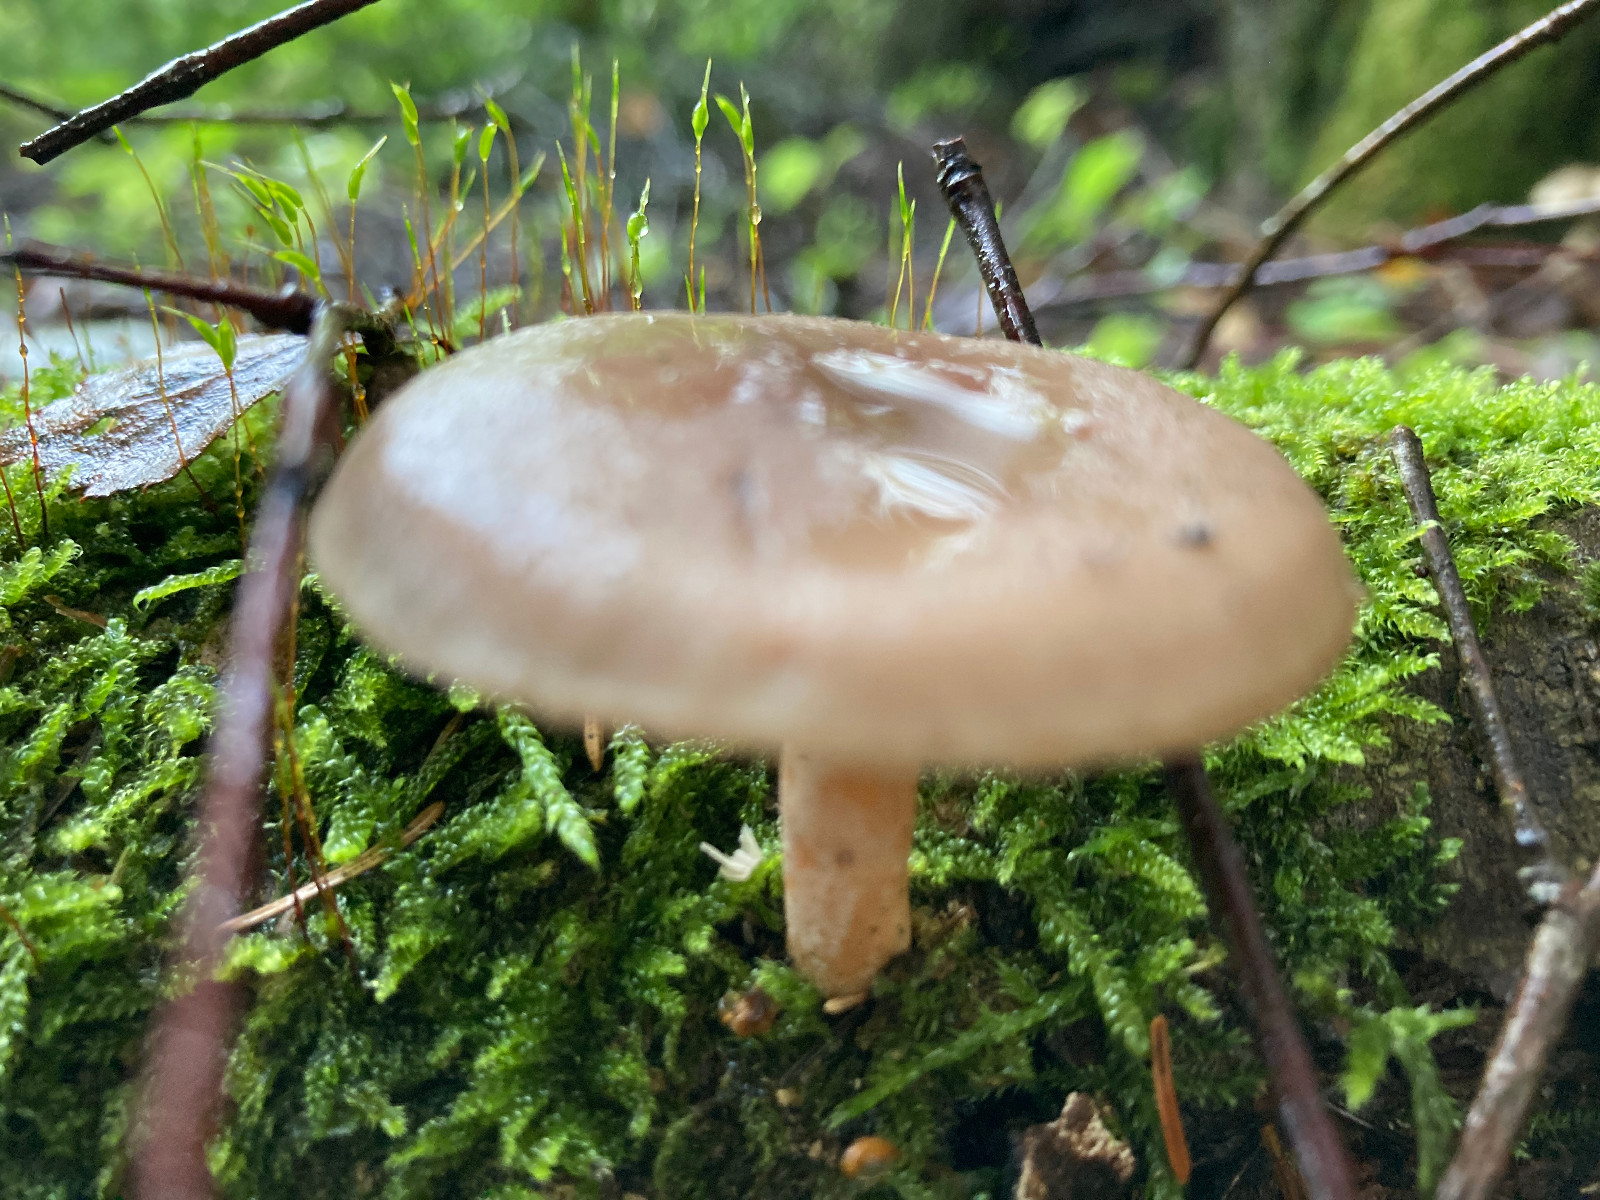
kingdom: Fungi
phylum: Basidiomycota
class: Agaricomycetes
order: Russulales
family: Russulaceae
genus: Lactarius
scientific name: Lactarius vietus
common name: violetgrå mælkehat
